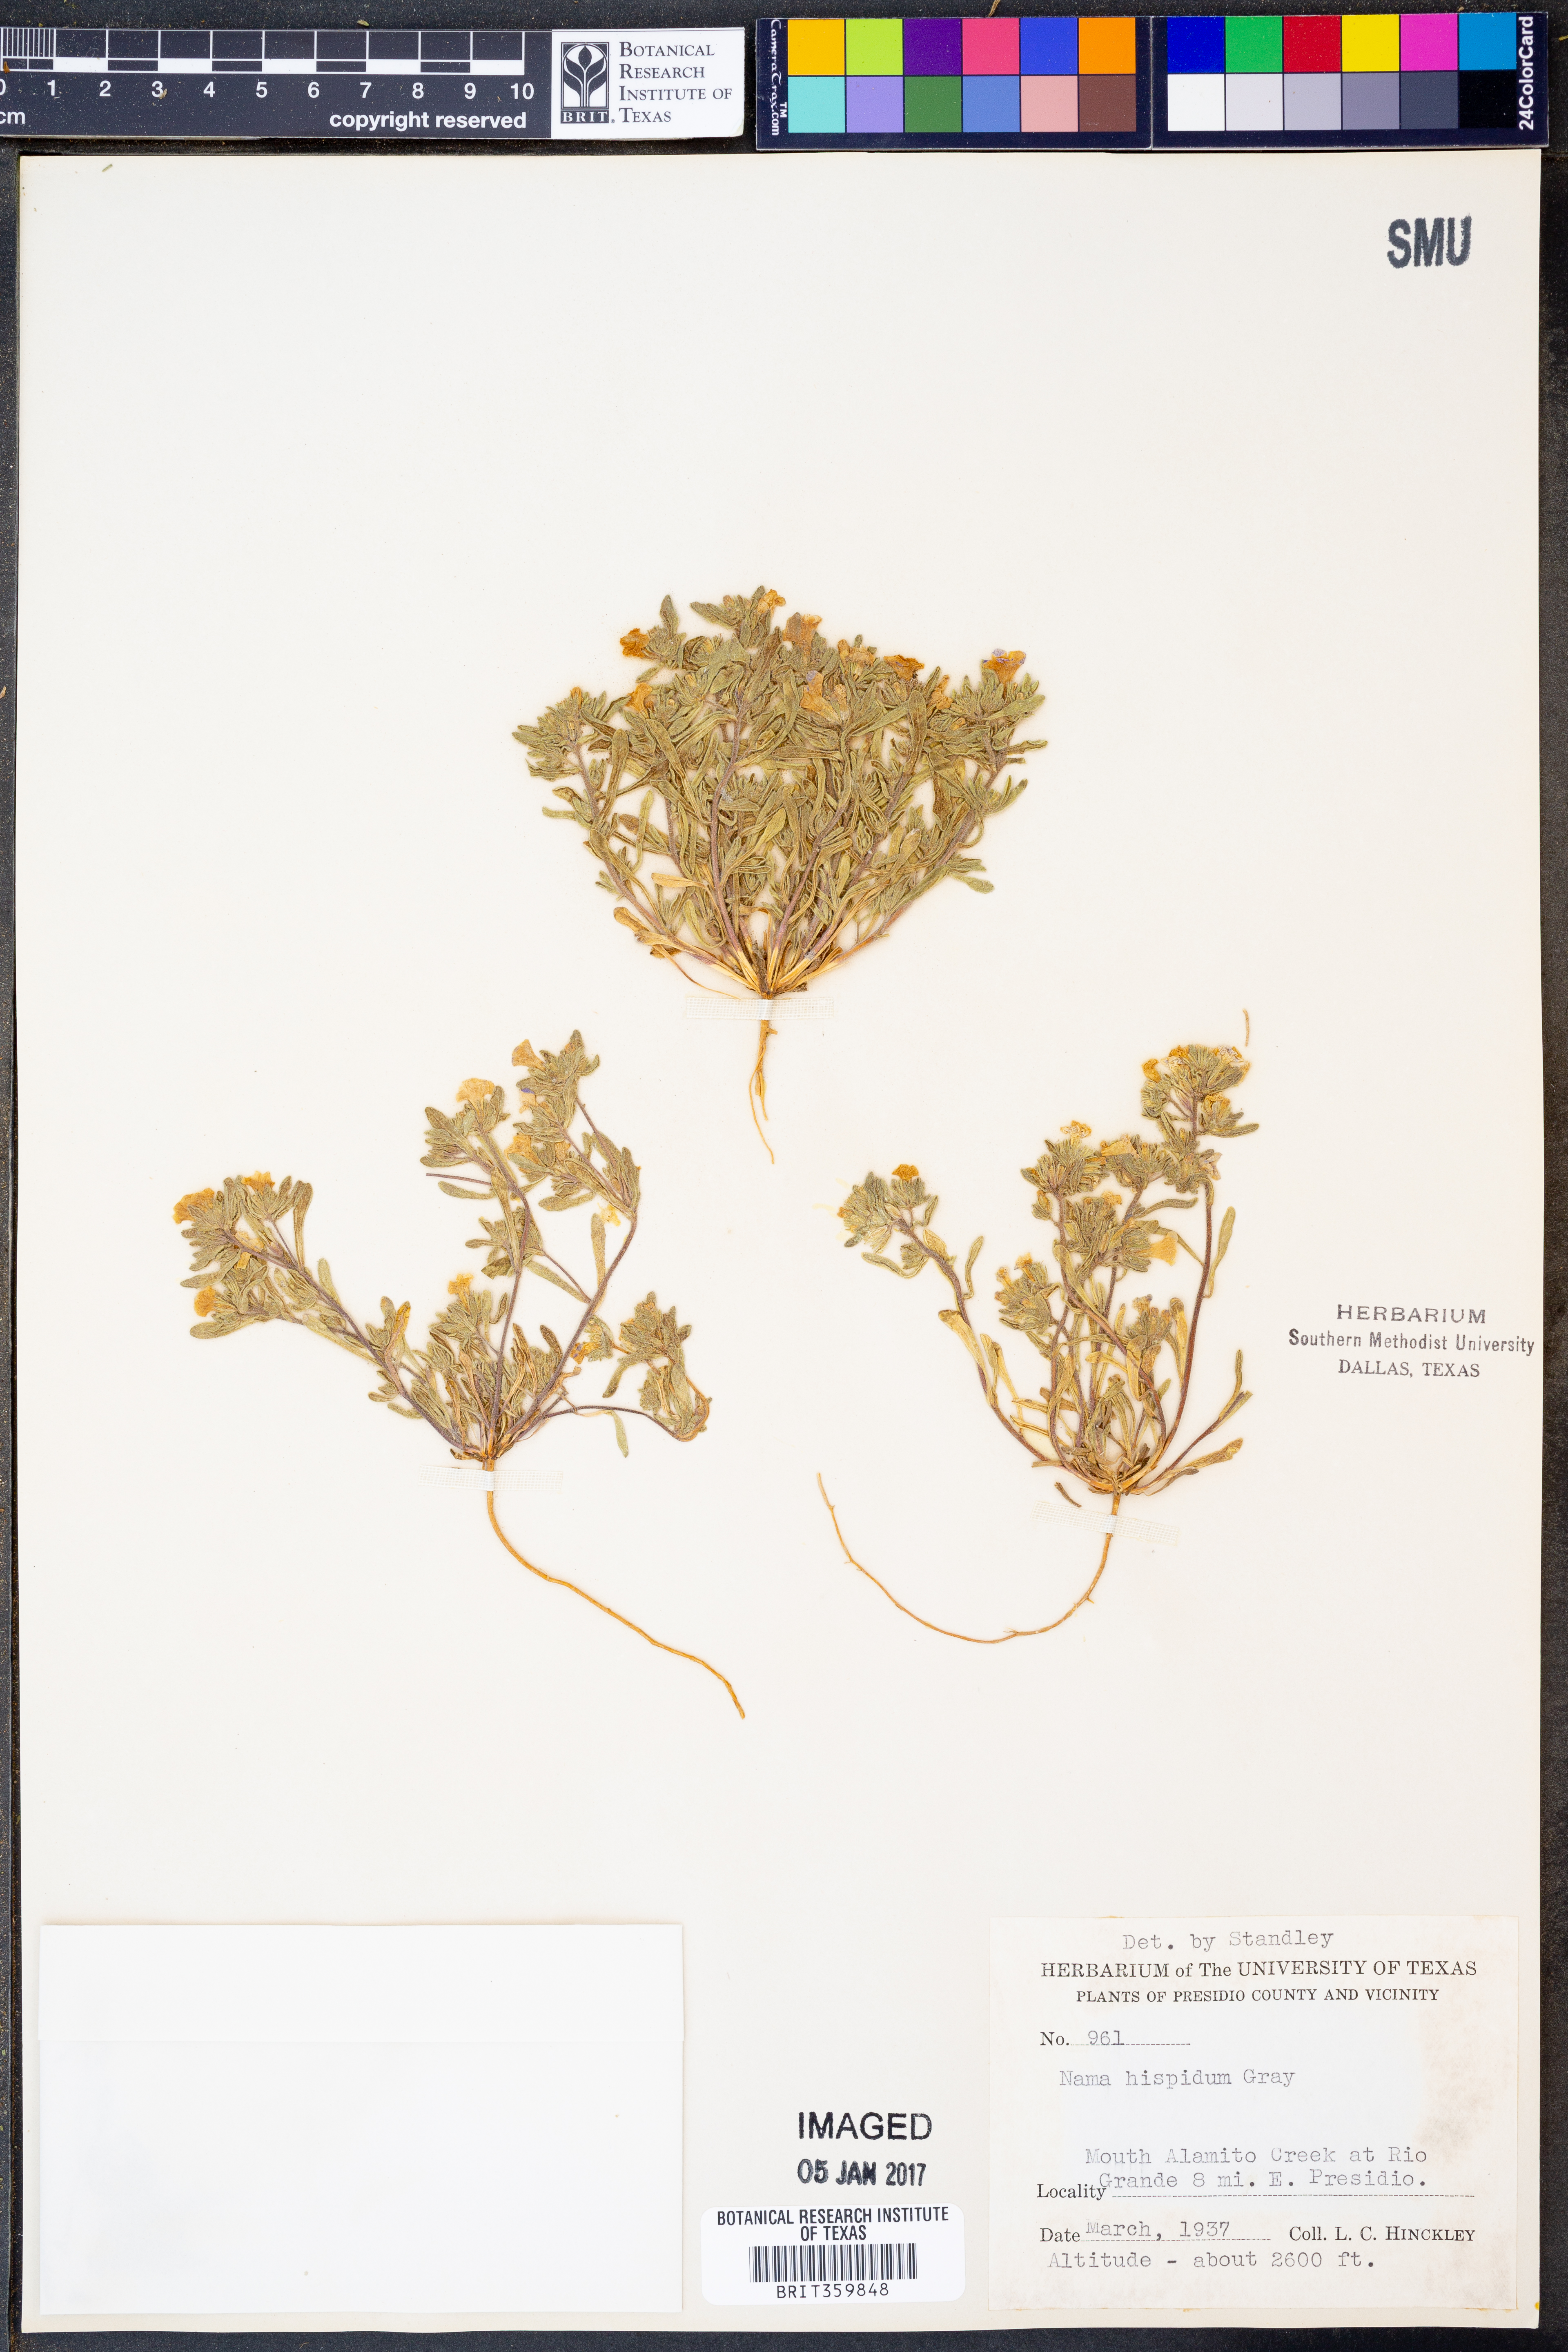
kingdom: Plantae
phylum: Tracheophyta
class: Magnoliopsida
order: Boraginales
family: Namaceae
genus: Nama
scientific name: Nama hispida
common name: Bristly nama
